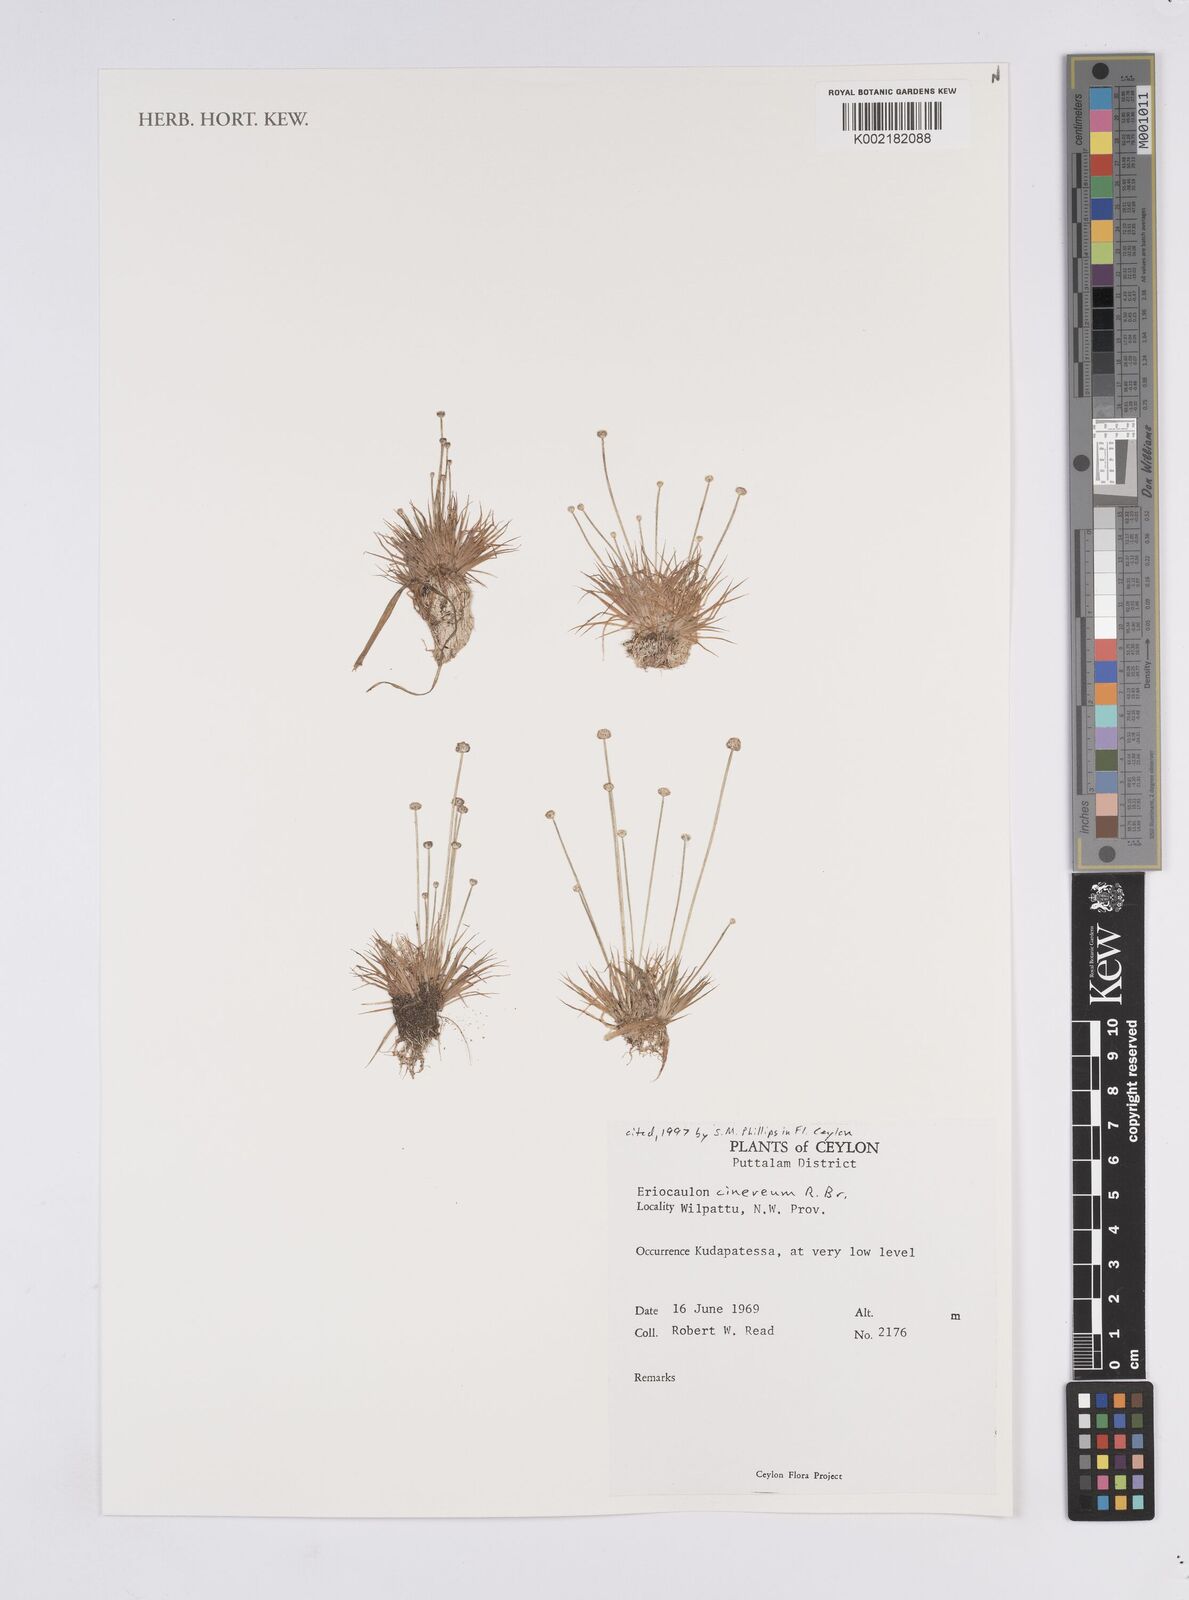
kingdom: Plantae
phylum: Tracheophyta
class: Liliopsida
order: Poales
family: Eriocaulaceae
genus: Eriocaulon
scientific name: Eriocaulon cinereum
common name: Ashy pipewort
